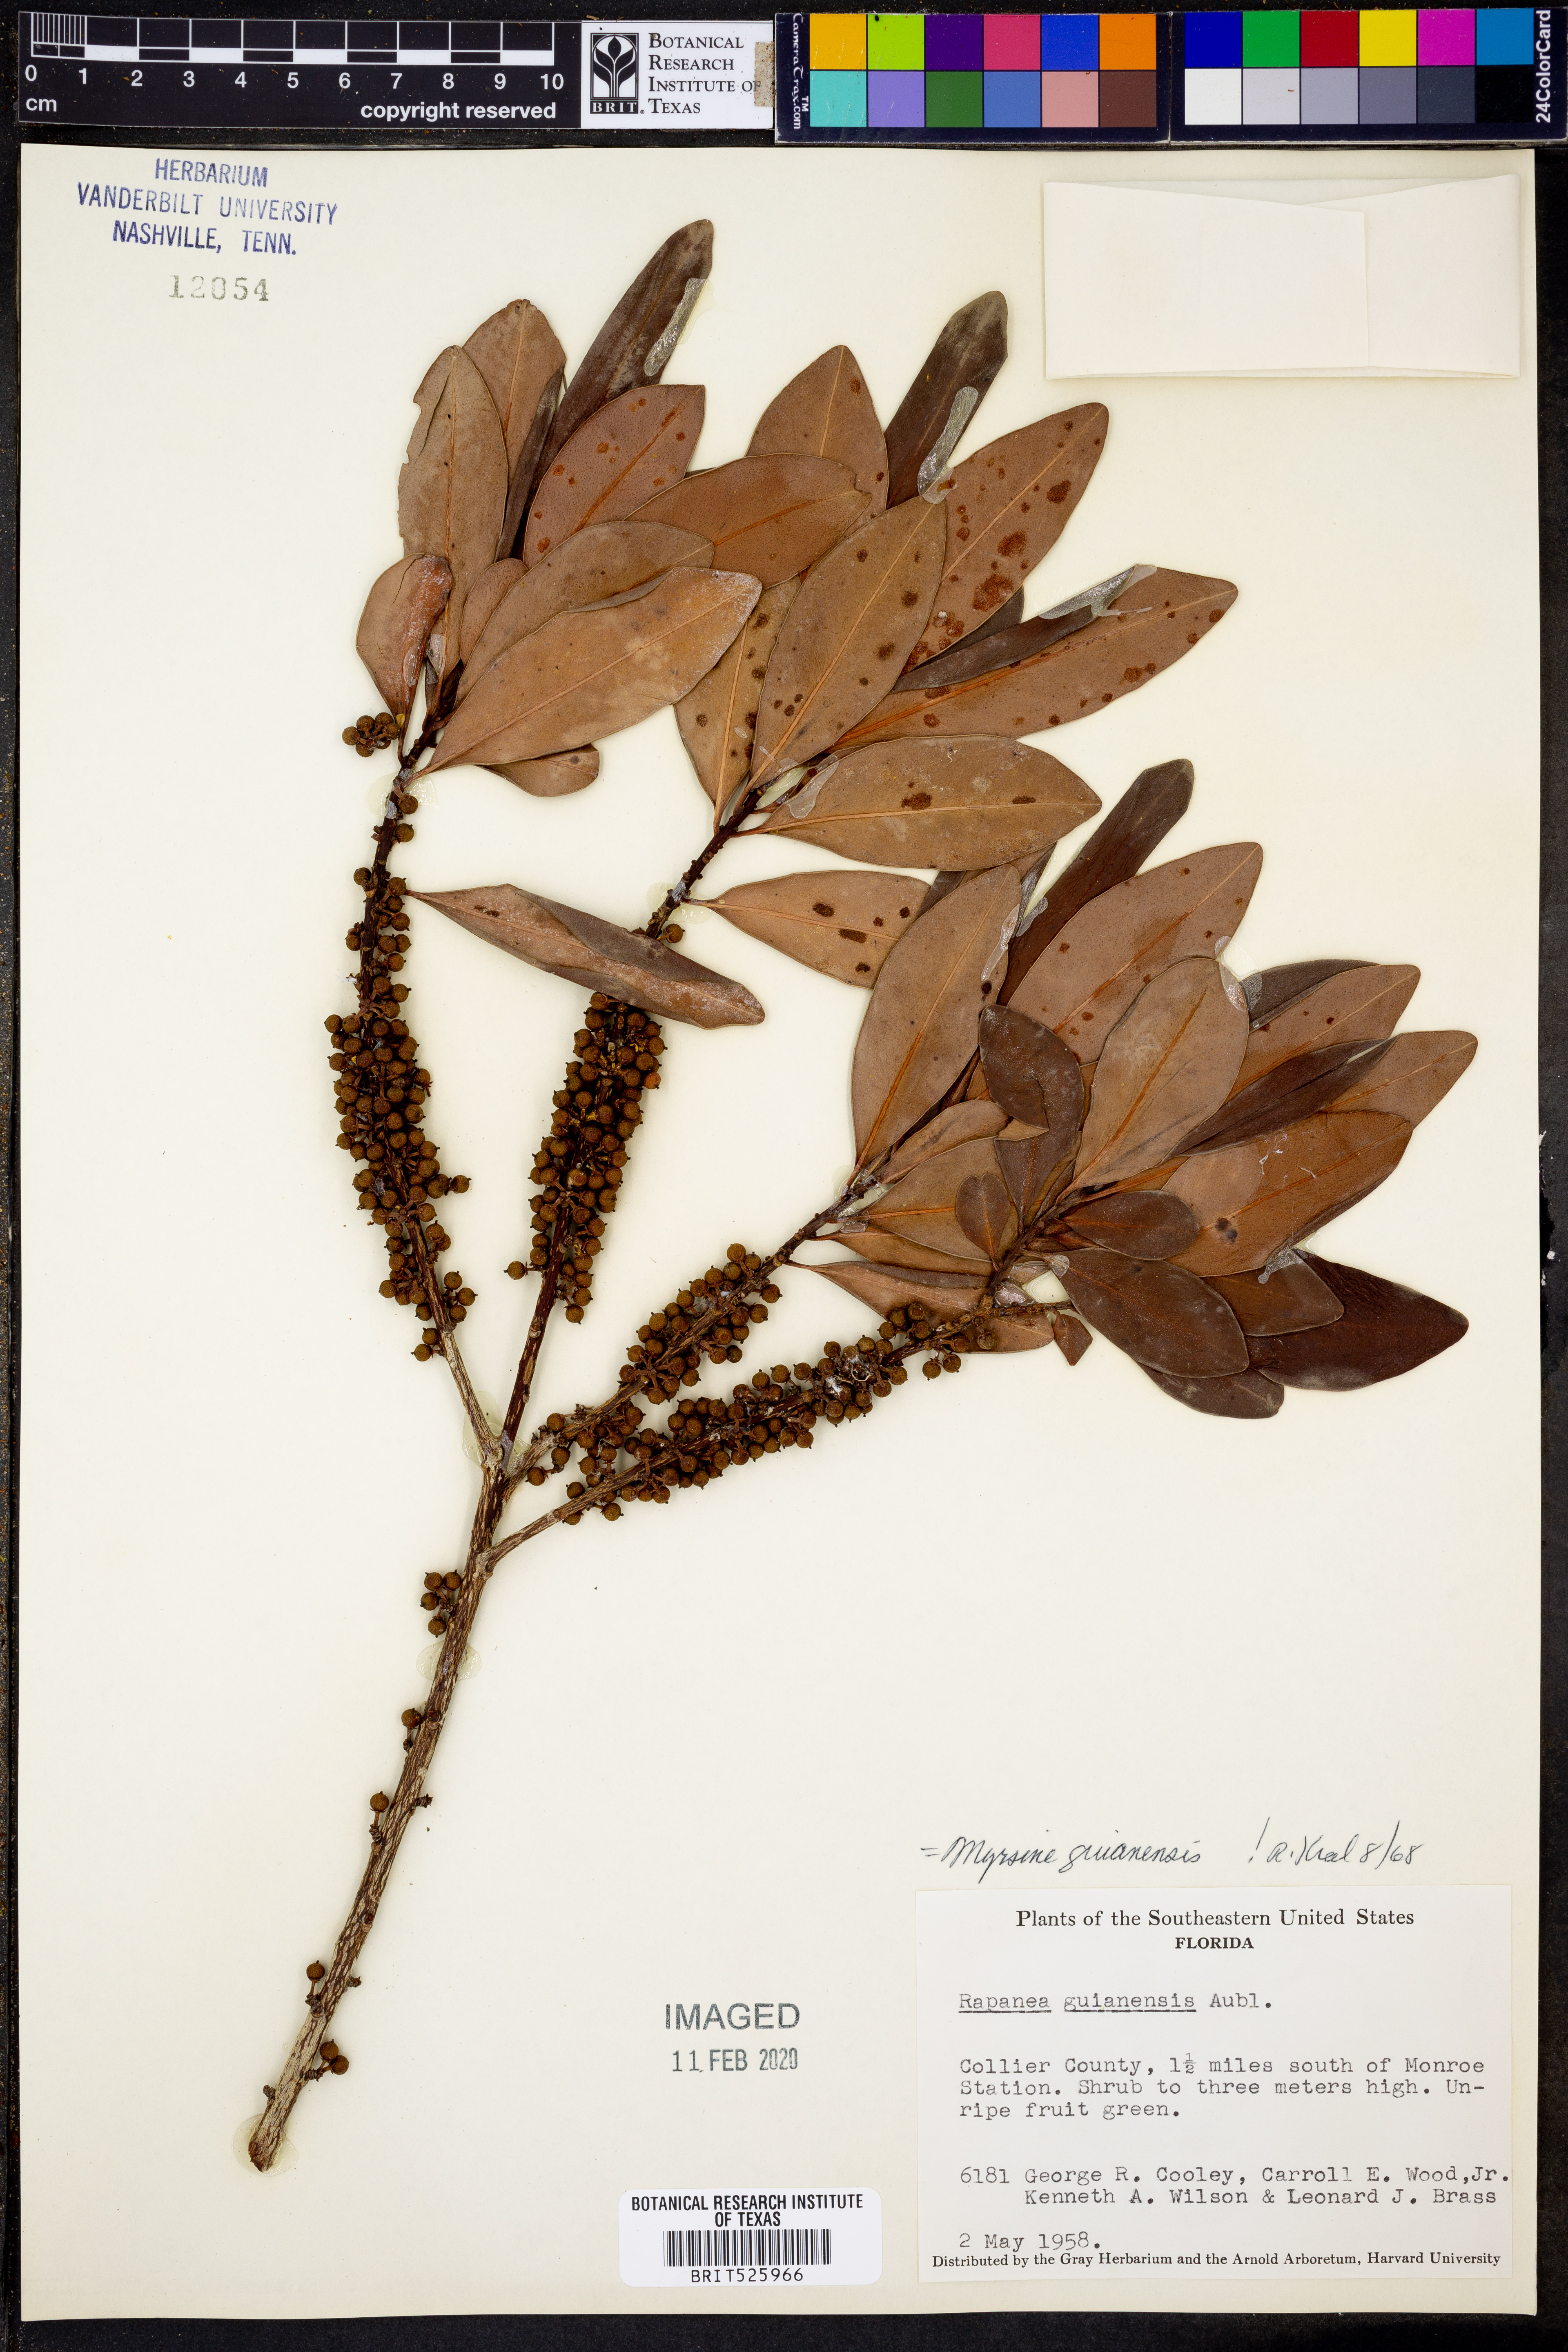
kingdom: Plantae
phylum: Tracheophyta
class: Magnoliopsida
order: Ericales
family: Primulaceae
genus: Myrsine
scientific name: Myrsine guianensis
